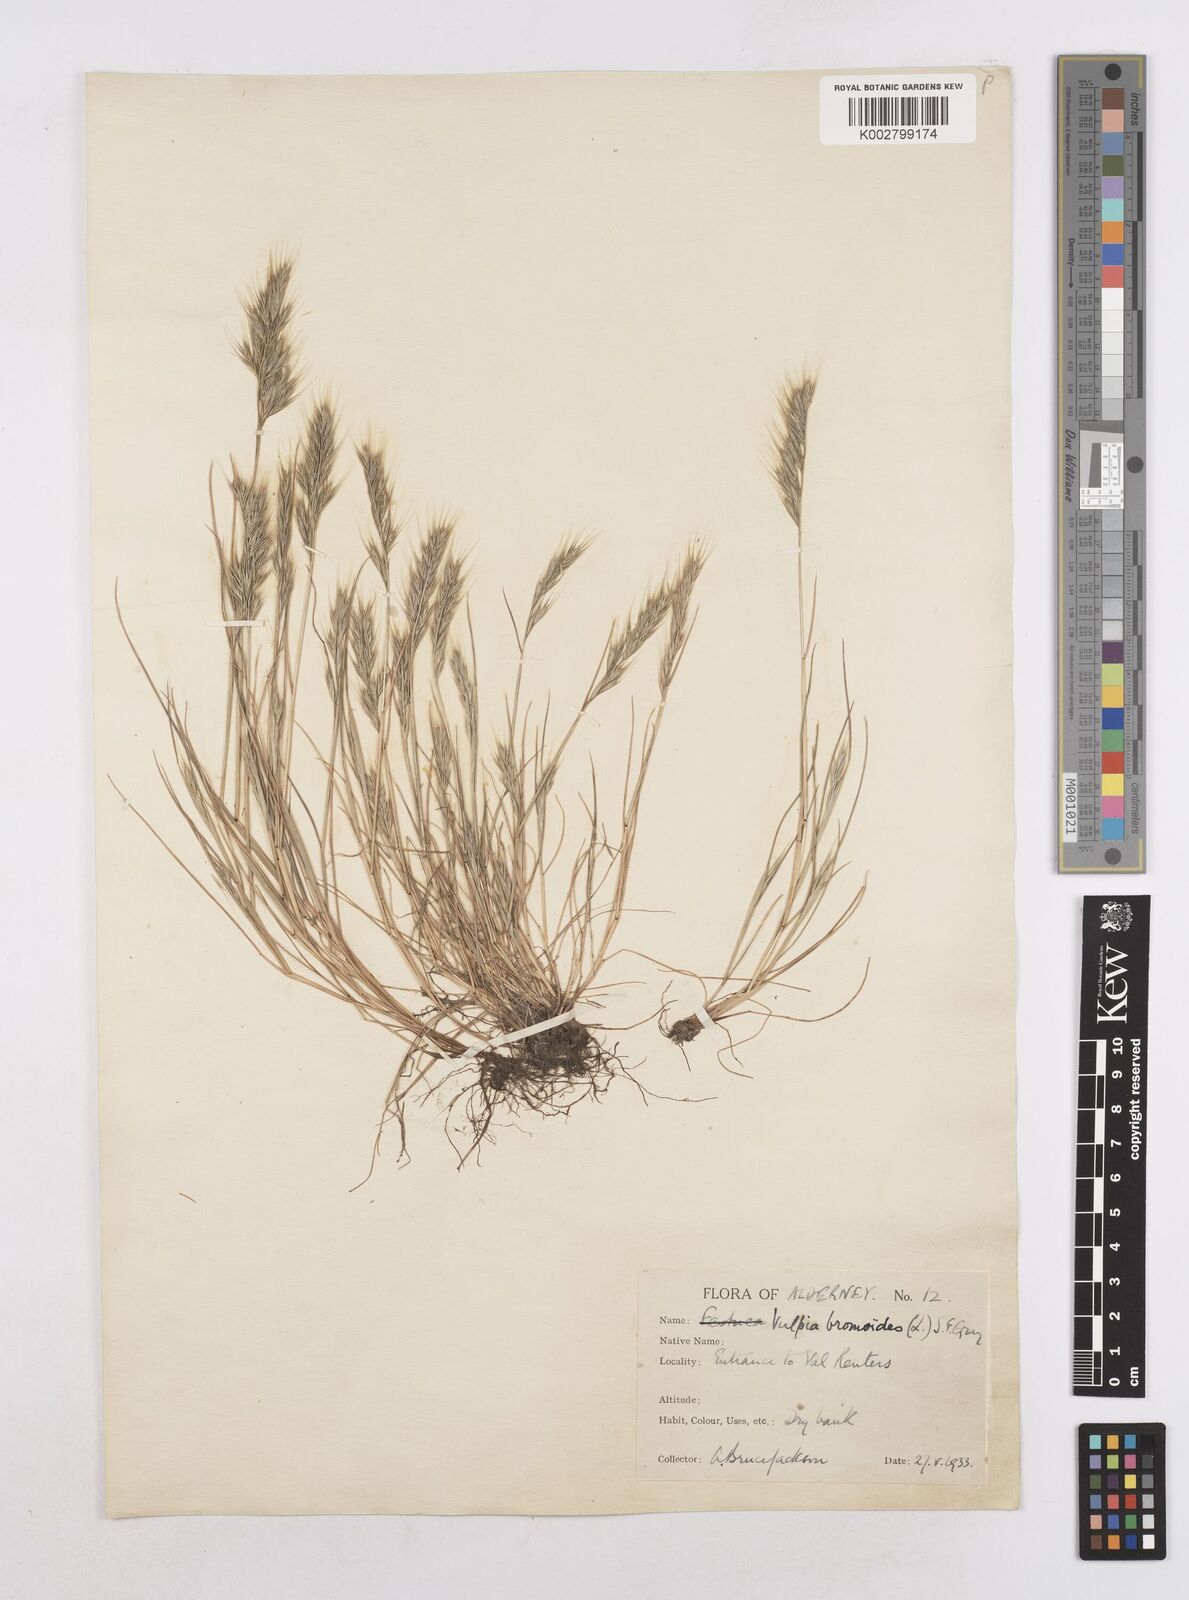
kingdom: Plantae
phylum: Tracheophyta
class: Liliopsida
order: Poales
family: Poaceae
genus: Festuca
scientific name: Festuca bromoides
